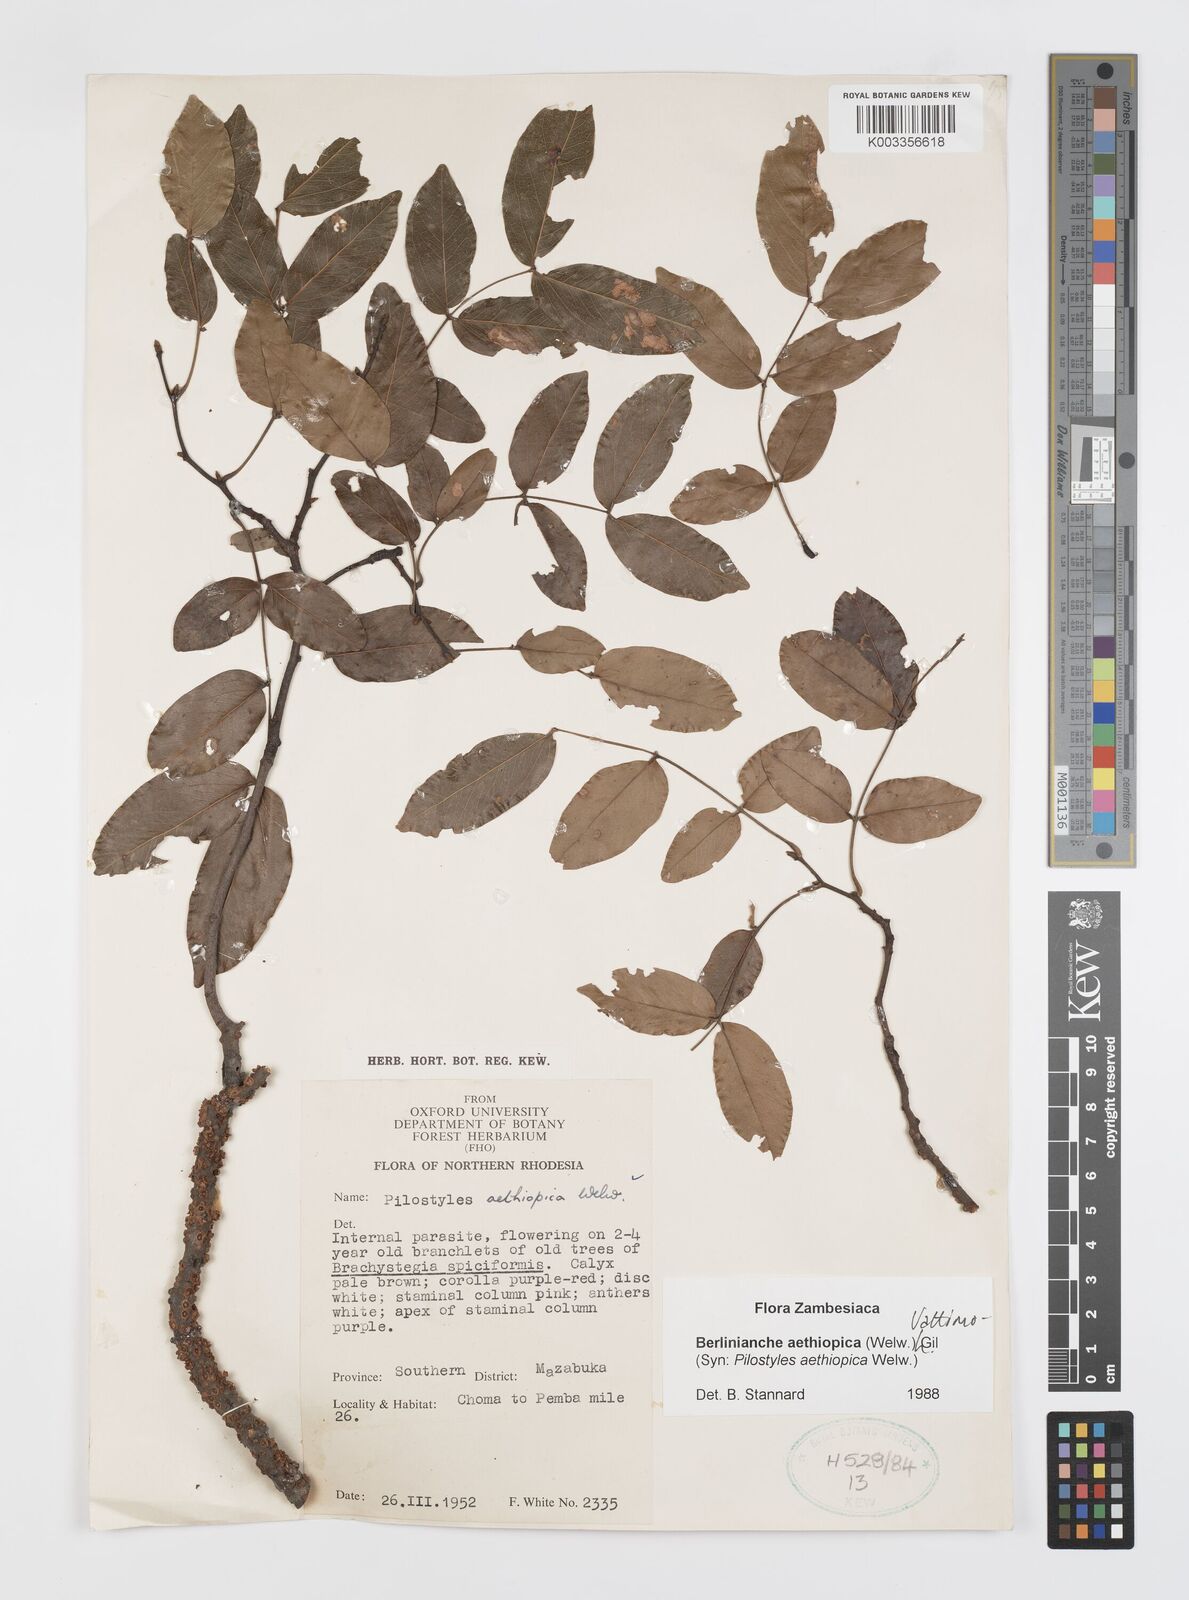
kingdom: Plantae
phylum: Tracheophyta
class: Magnoliopsida
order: Cucurbitales
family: Apodanthaceae
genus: Pilostyles
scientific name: Pilostyles aethiopica
